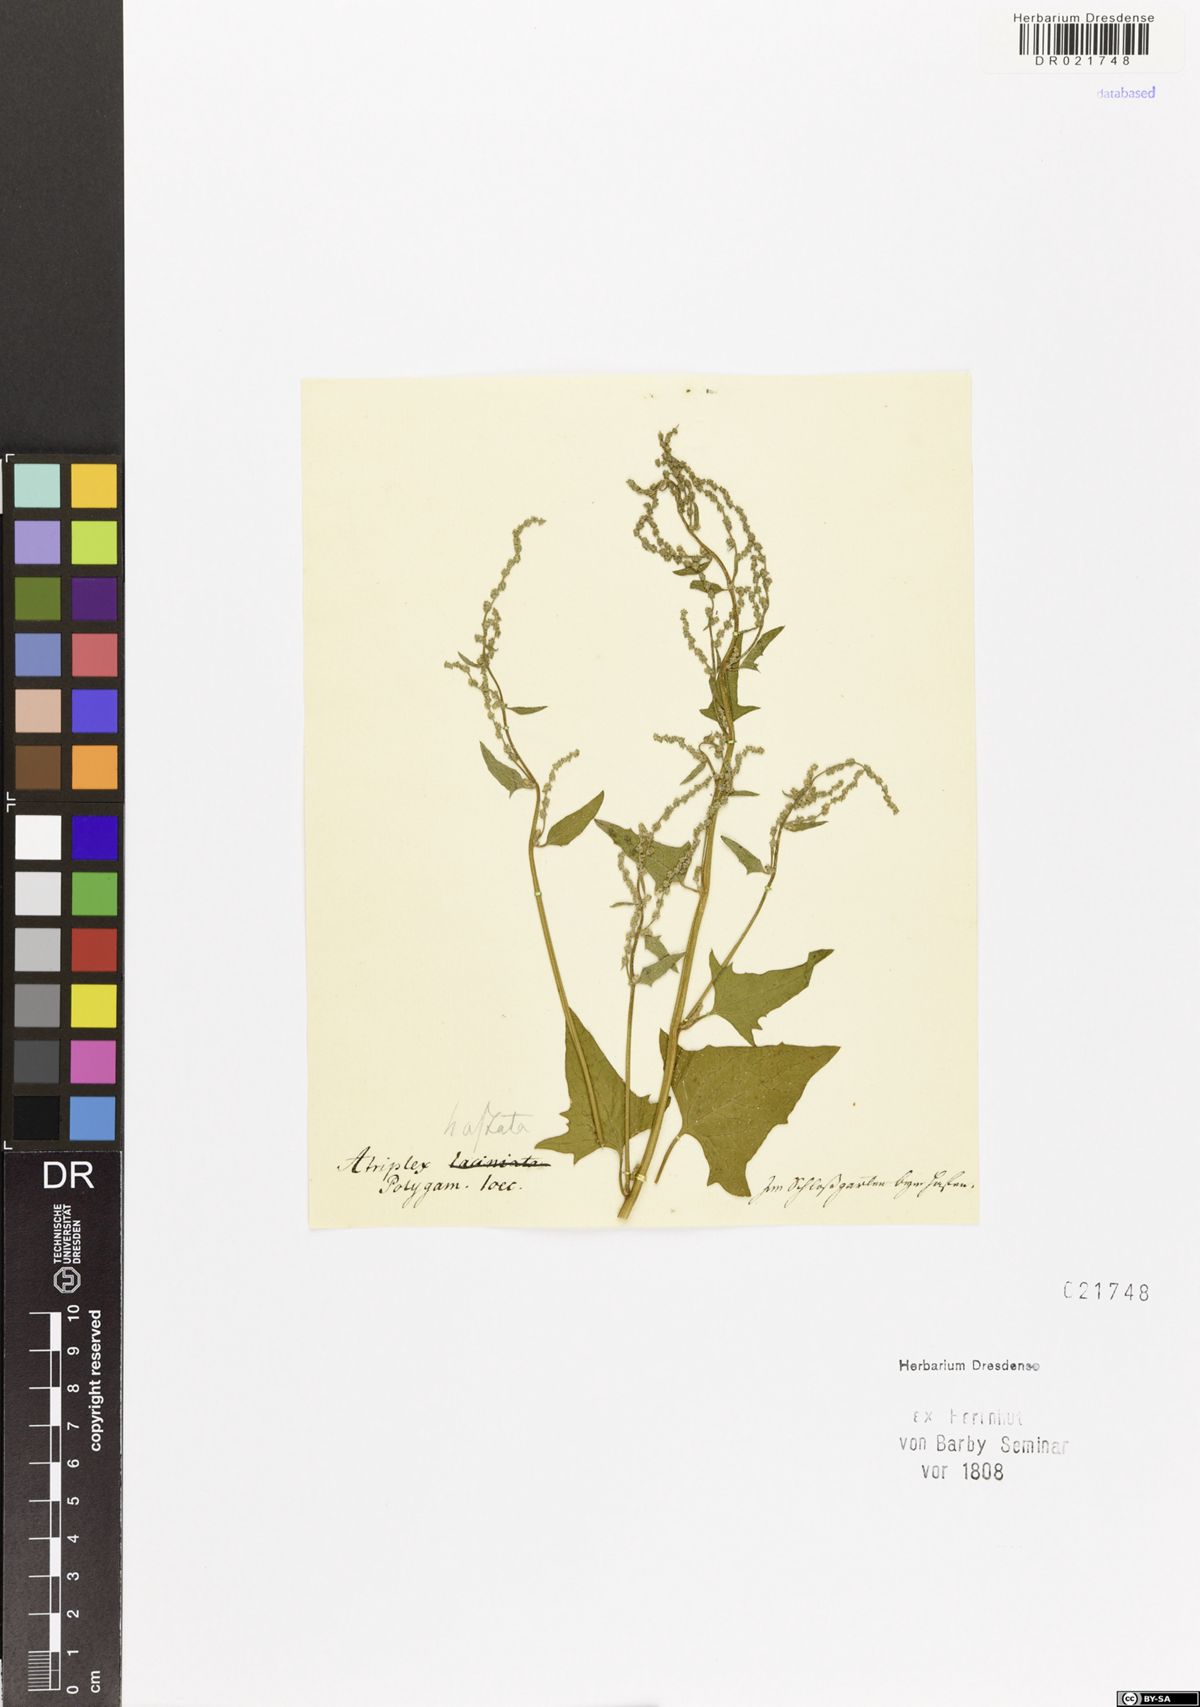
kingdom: Plantae
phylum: Tracheophyta
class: Magnoliopsida
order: Caryophyllales
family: Amaranthaceae
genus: Atriplex
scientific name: Atriplex calotheca
